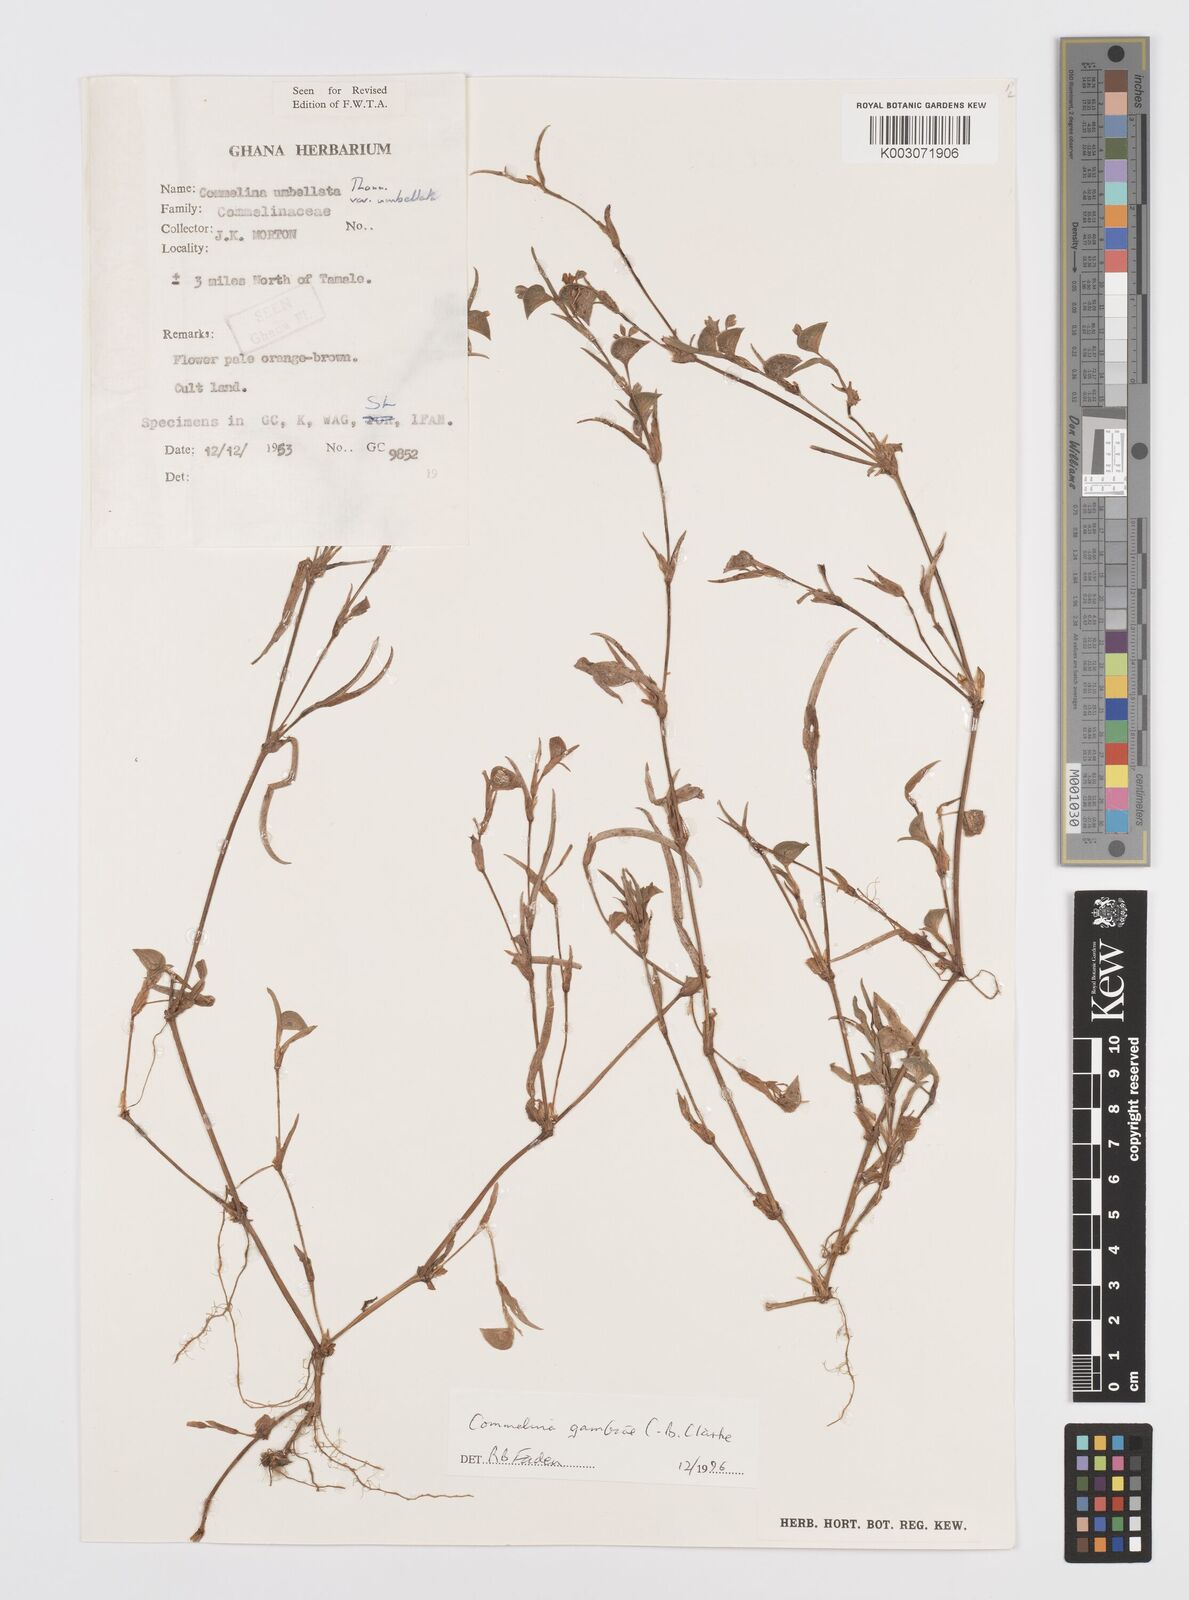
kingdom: Plantae
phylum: Tracheophyta
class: Liliopsida
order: Commelinales
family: Commelinaceae
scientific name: Commelinaceae
